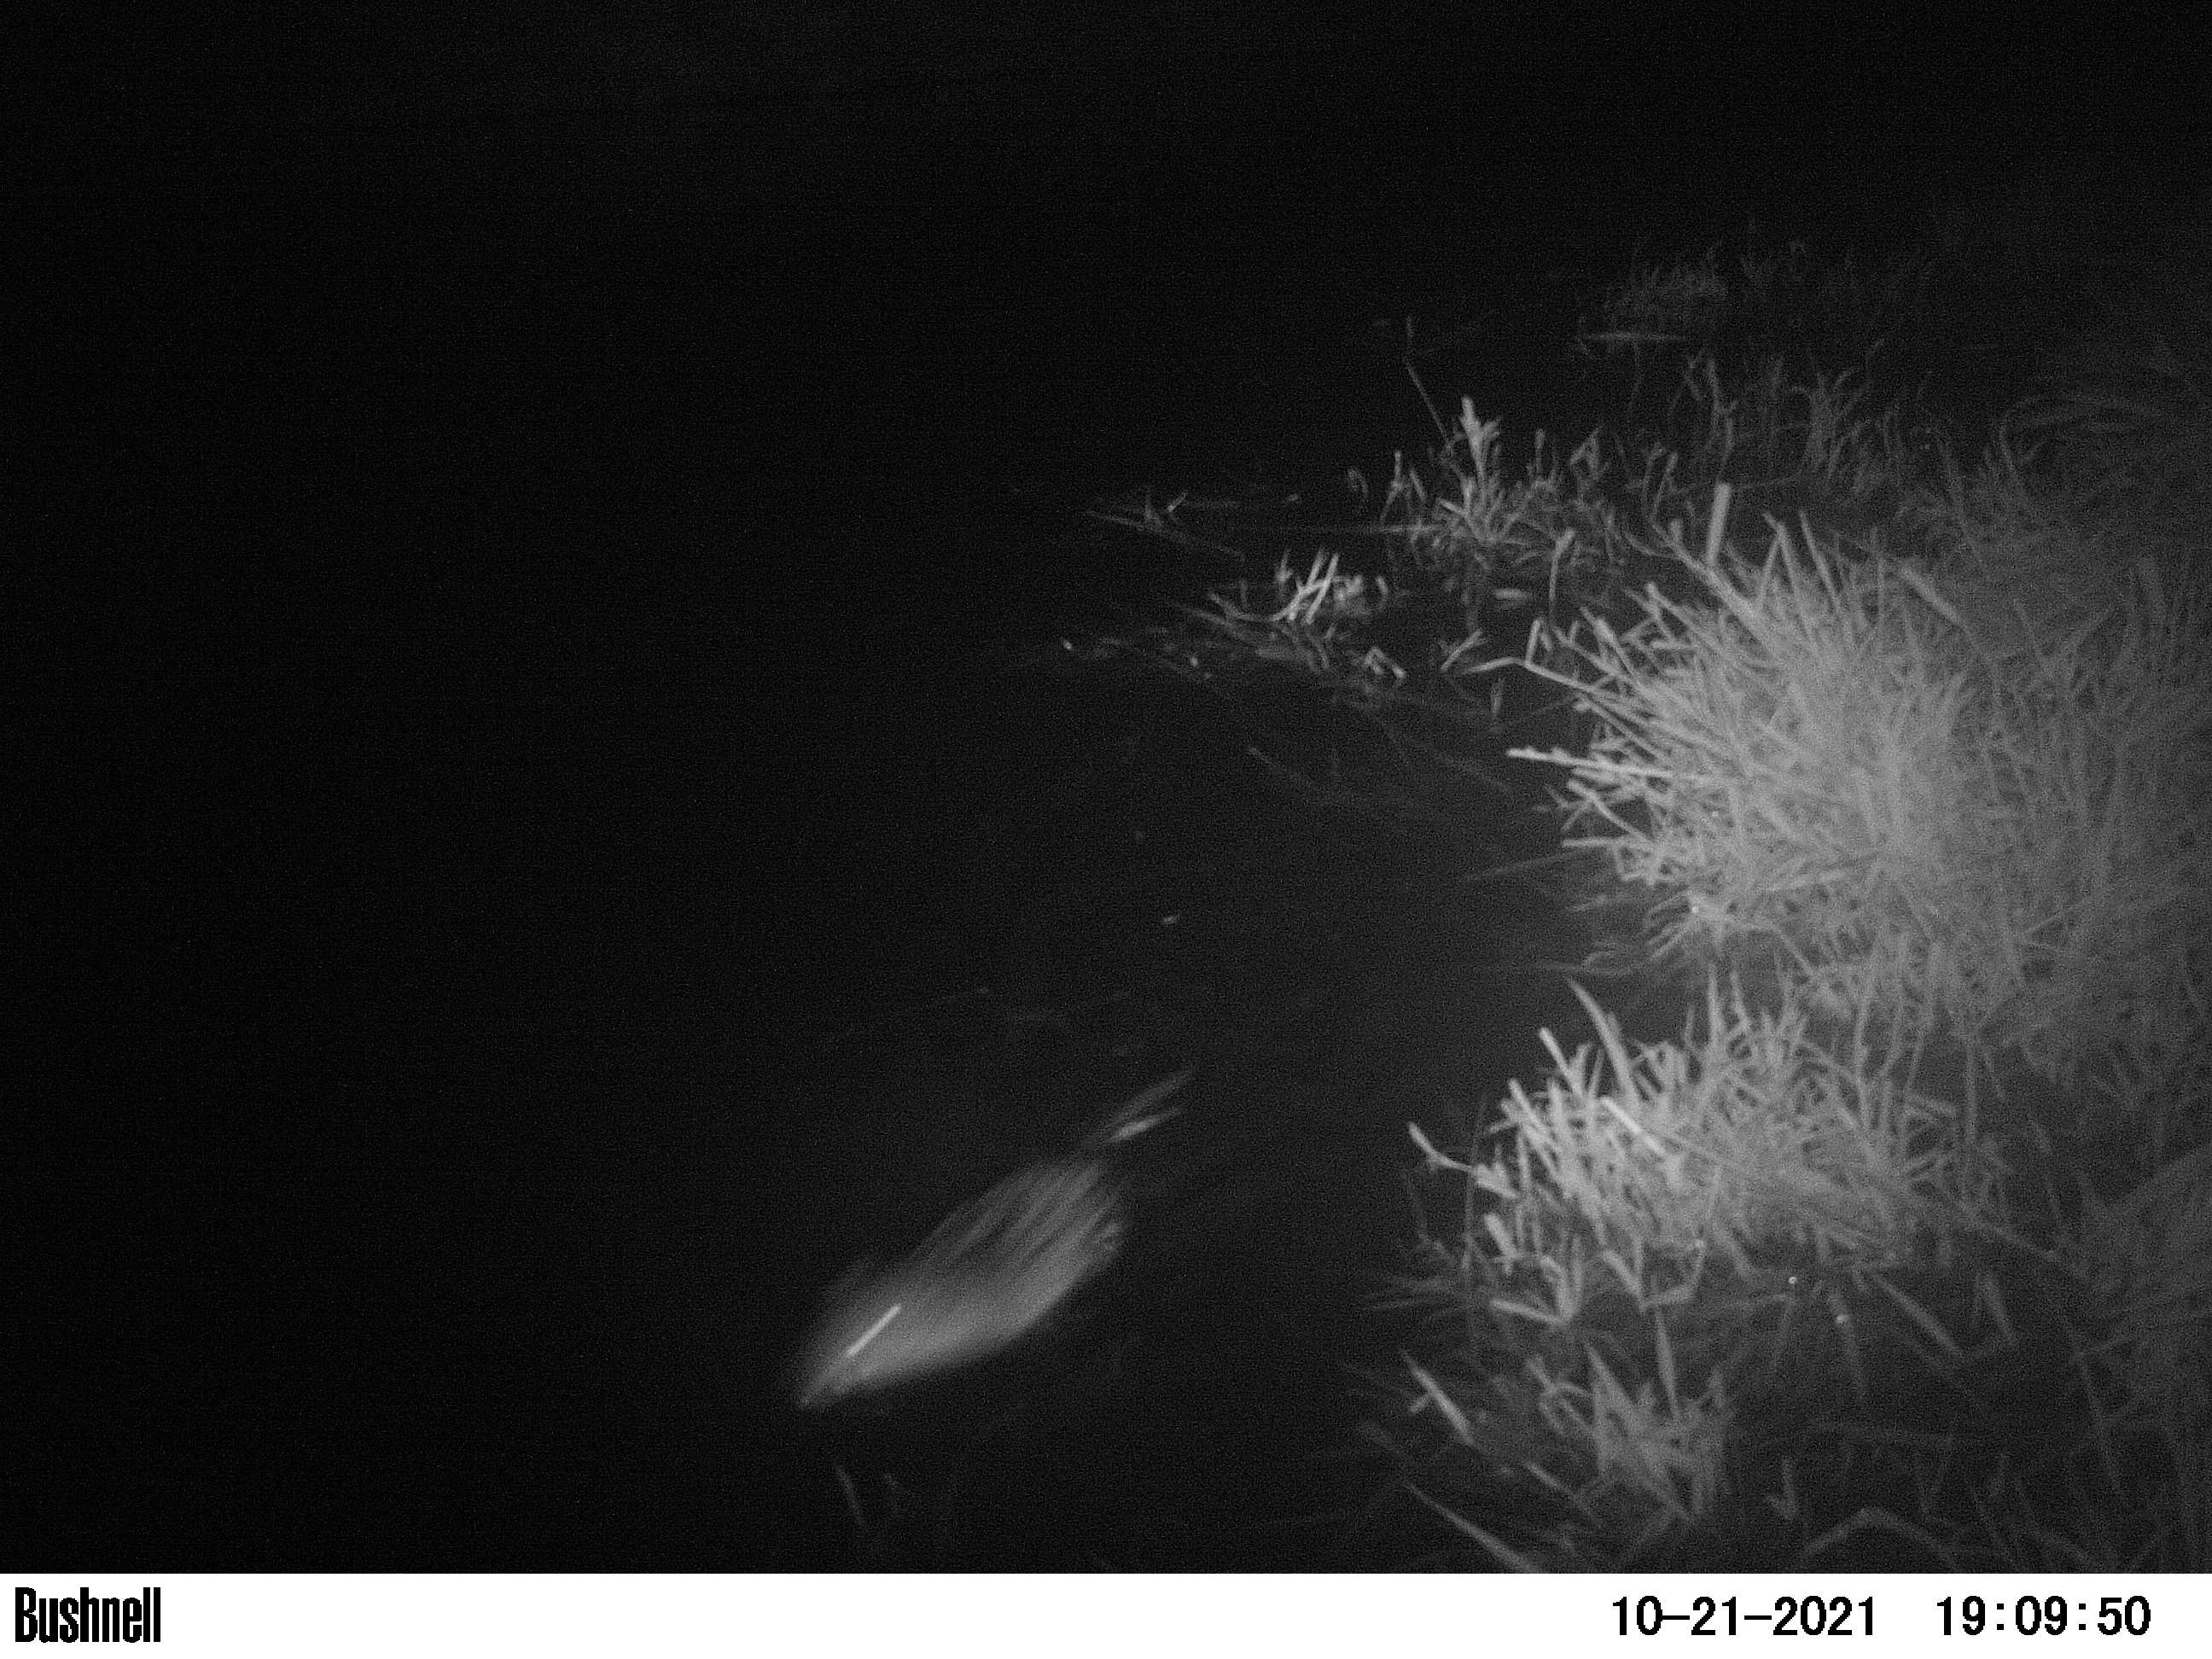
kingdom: Animalia
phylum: Chordata
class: Mammalia
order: Rodentia
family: Muridae
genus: Rattus
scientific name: Rattus norvegicus
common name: Brown rat
